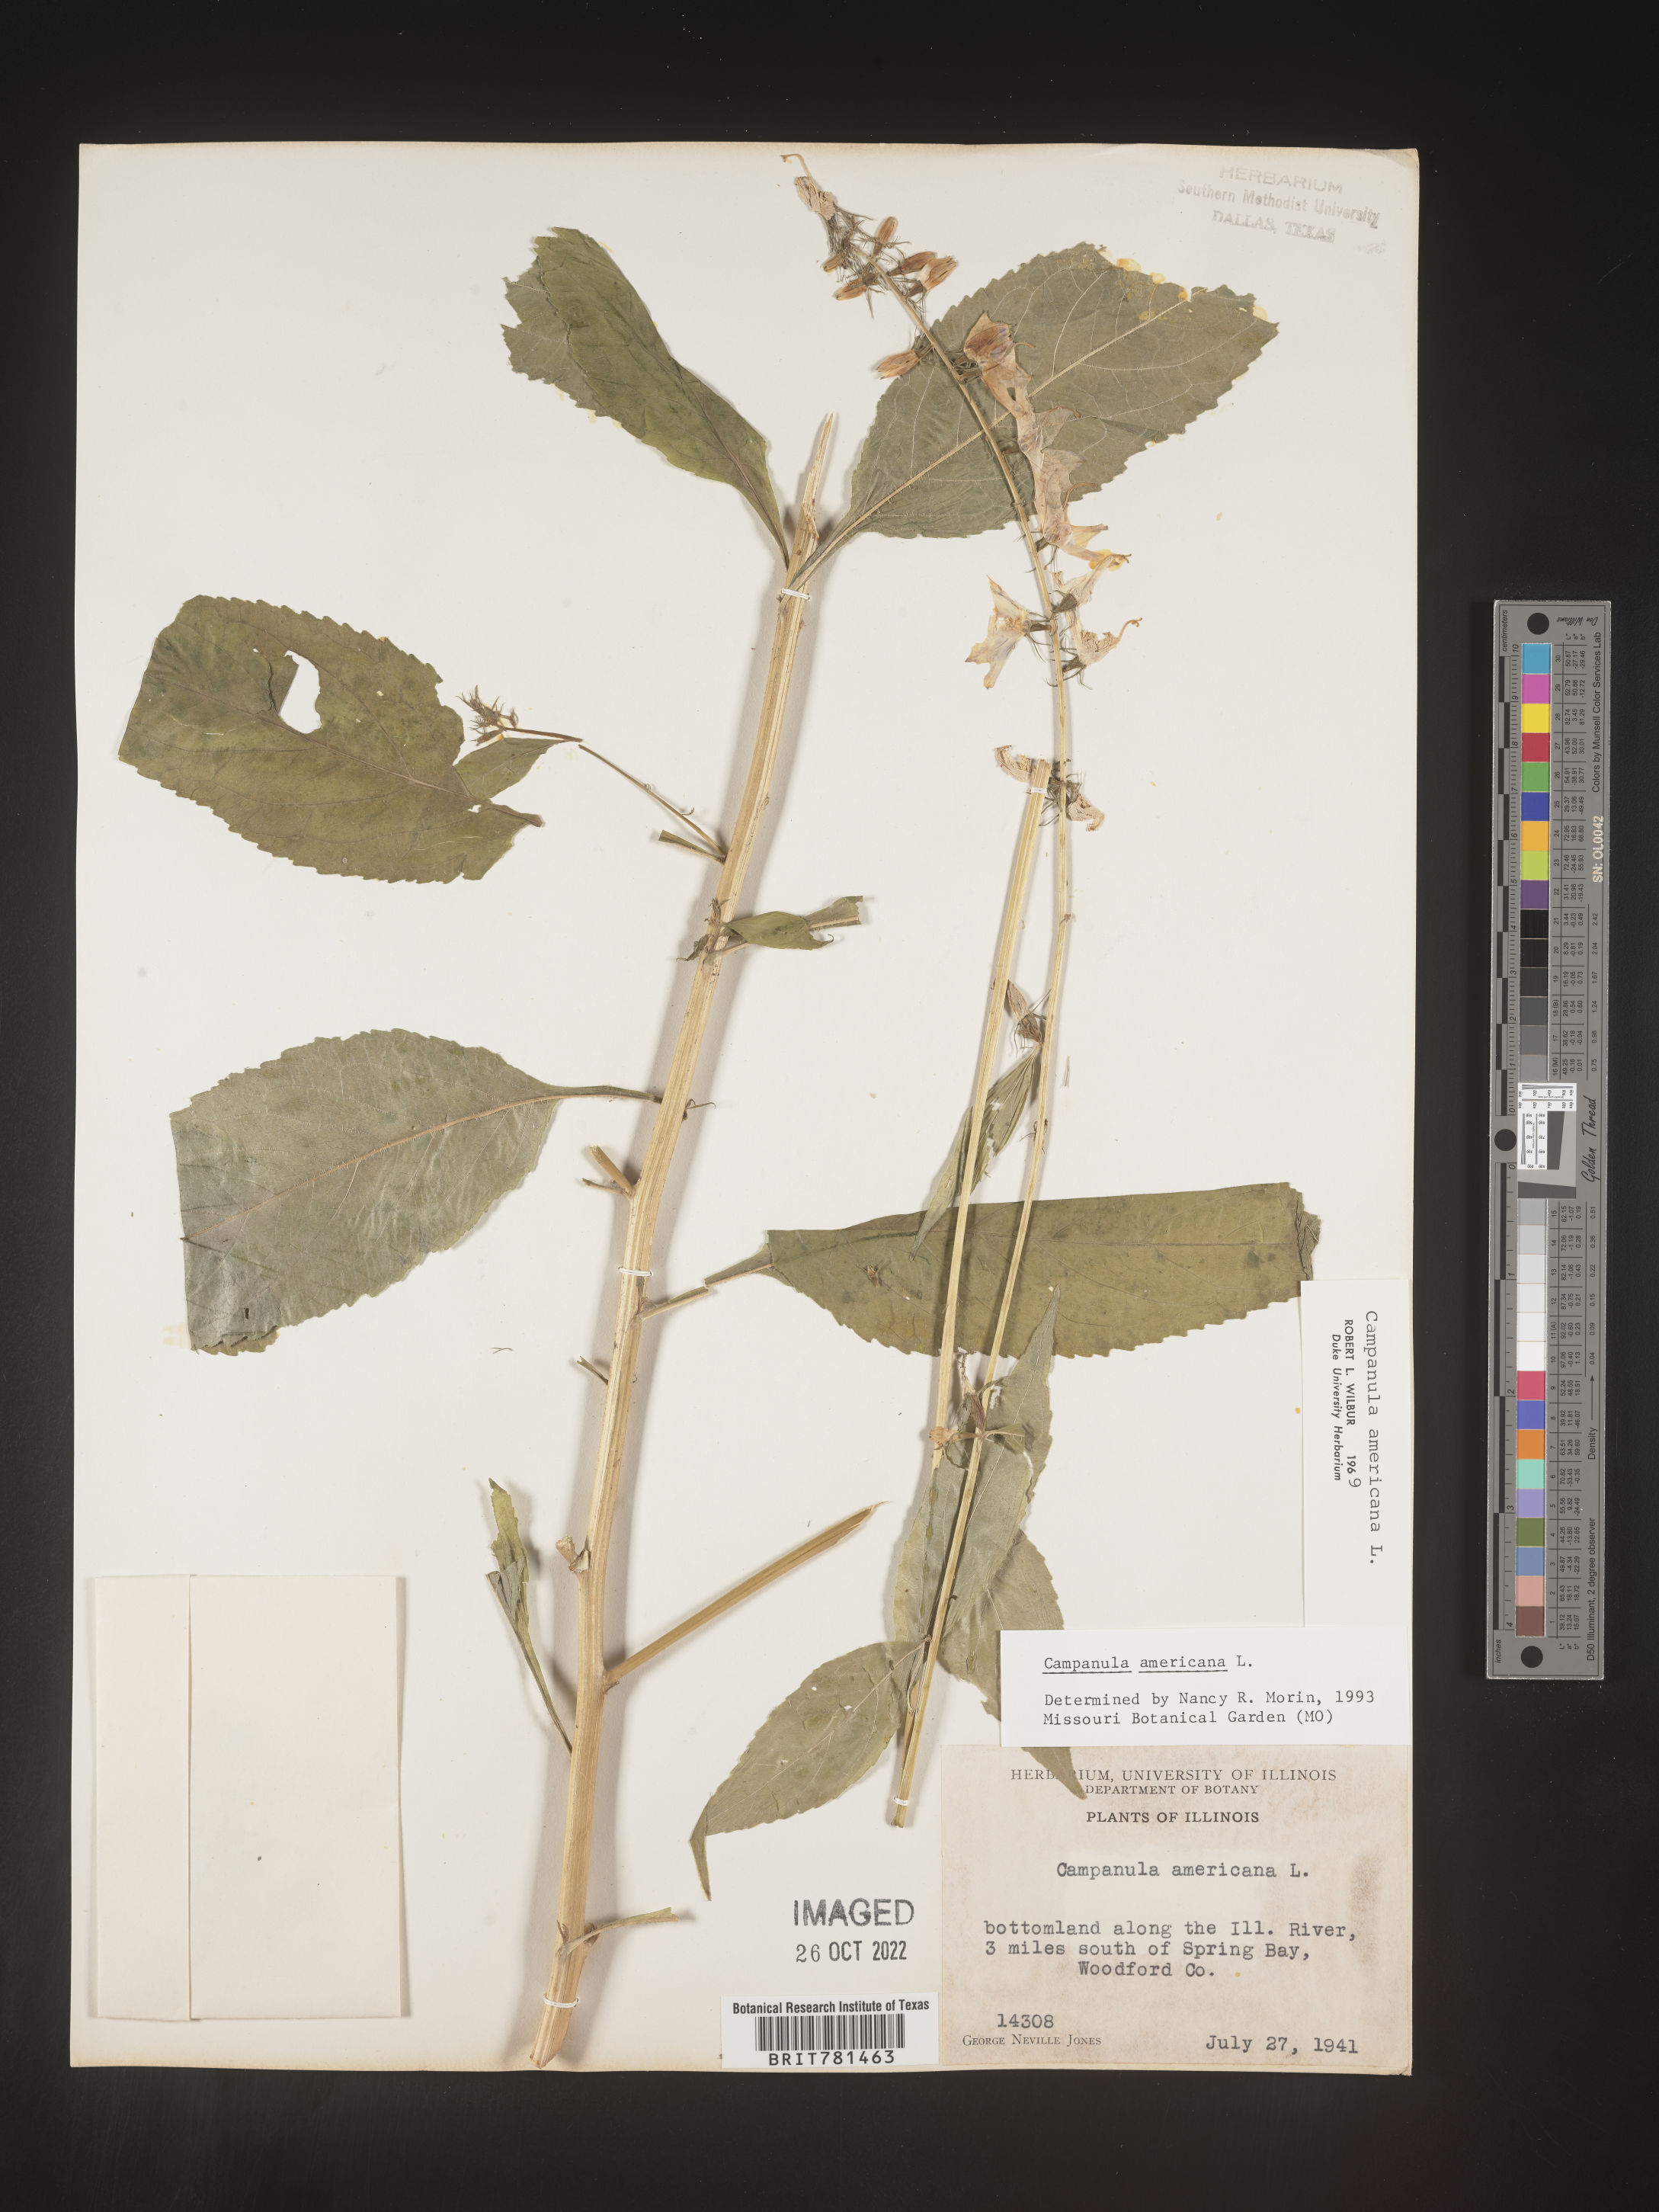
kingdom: Plantae
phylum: Tracheophyta
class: Magnoliopsida
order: Asterales
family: Campanulaceae
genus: Campanula
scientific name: Campanula americana
